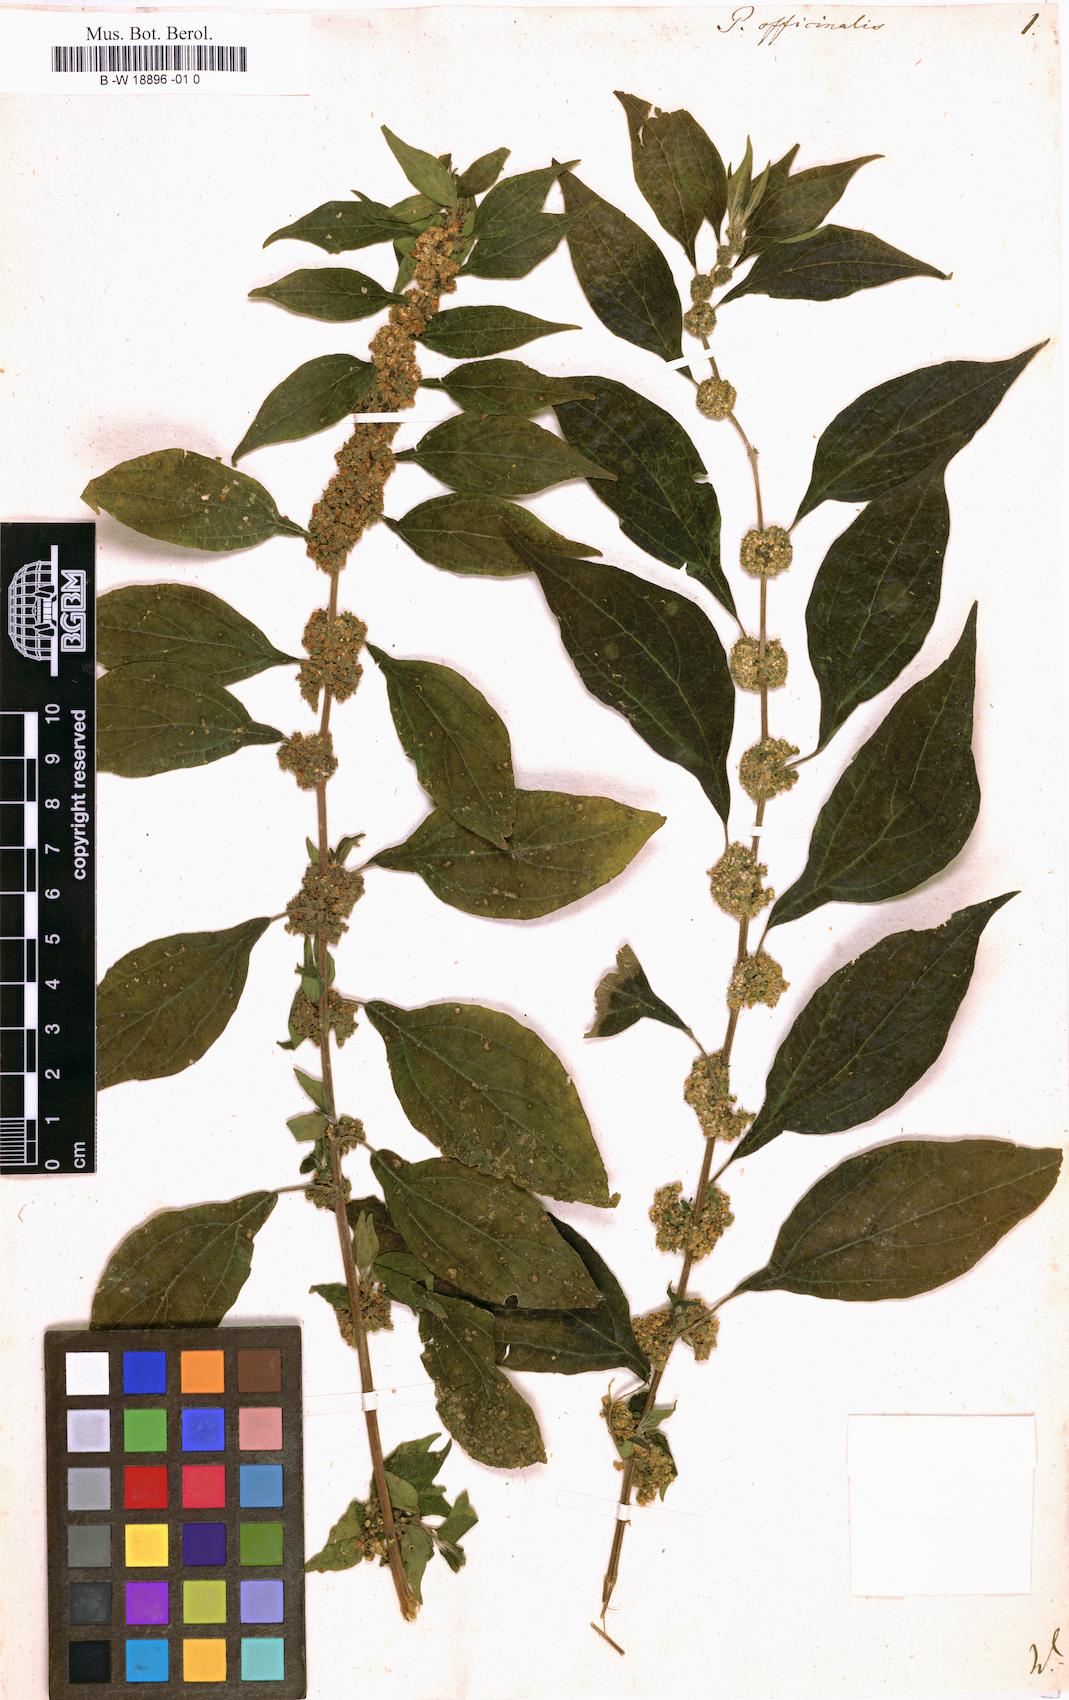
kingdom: Plantae
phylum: Tracheophyta
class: Magnoliopsida
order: Rosales
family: Urticaceae
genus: Parietaria
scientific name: Parietaria officinalis
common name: Eastern pellitory-of-the-wall
